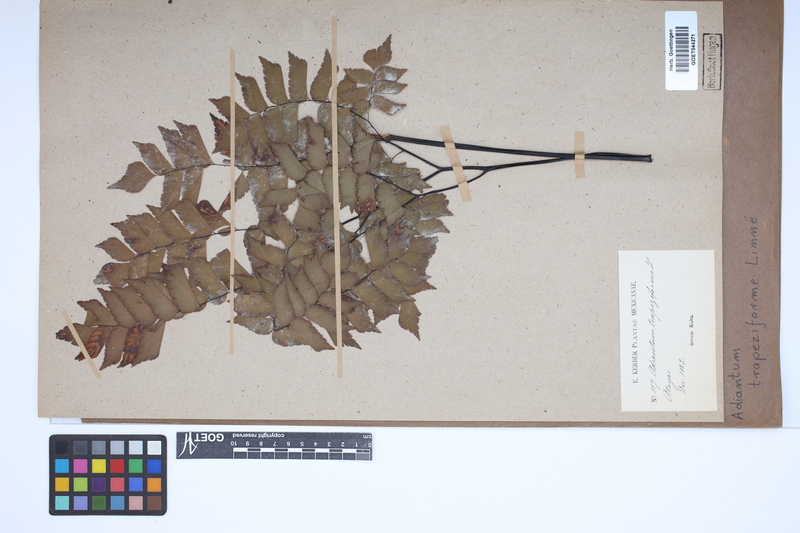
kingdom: Plantae
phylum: Tracheophyta
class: Polypodiopsida
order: Polypodiales
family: Pteridaceae
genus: Adiantum
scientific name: Adiantum trapeziforme
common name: Diamond maidenhair
